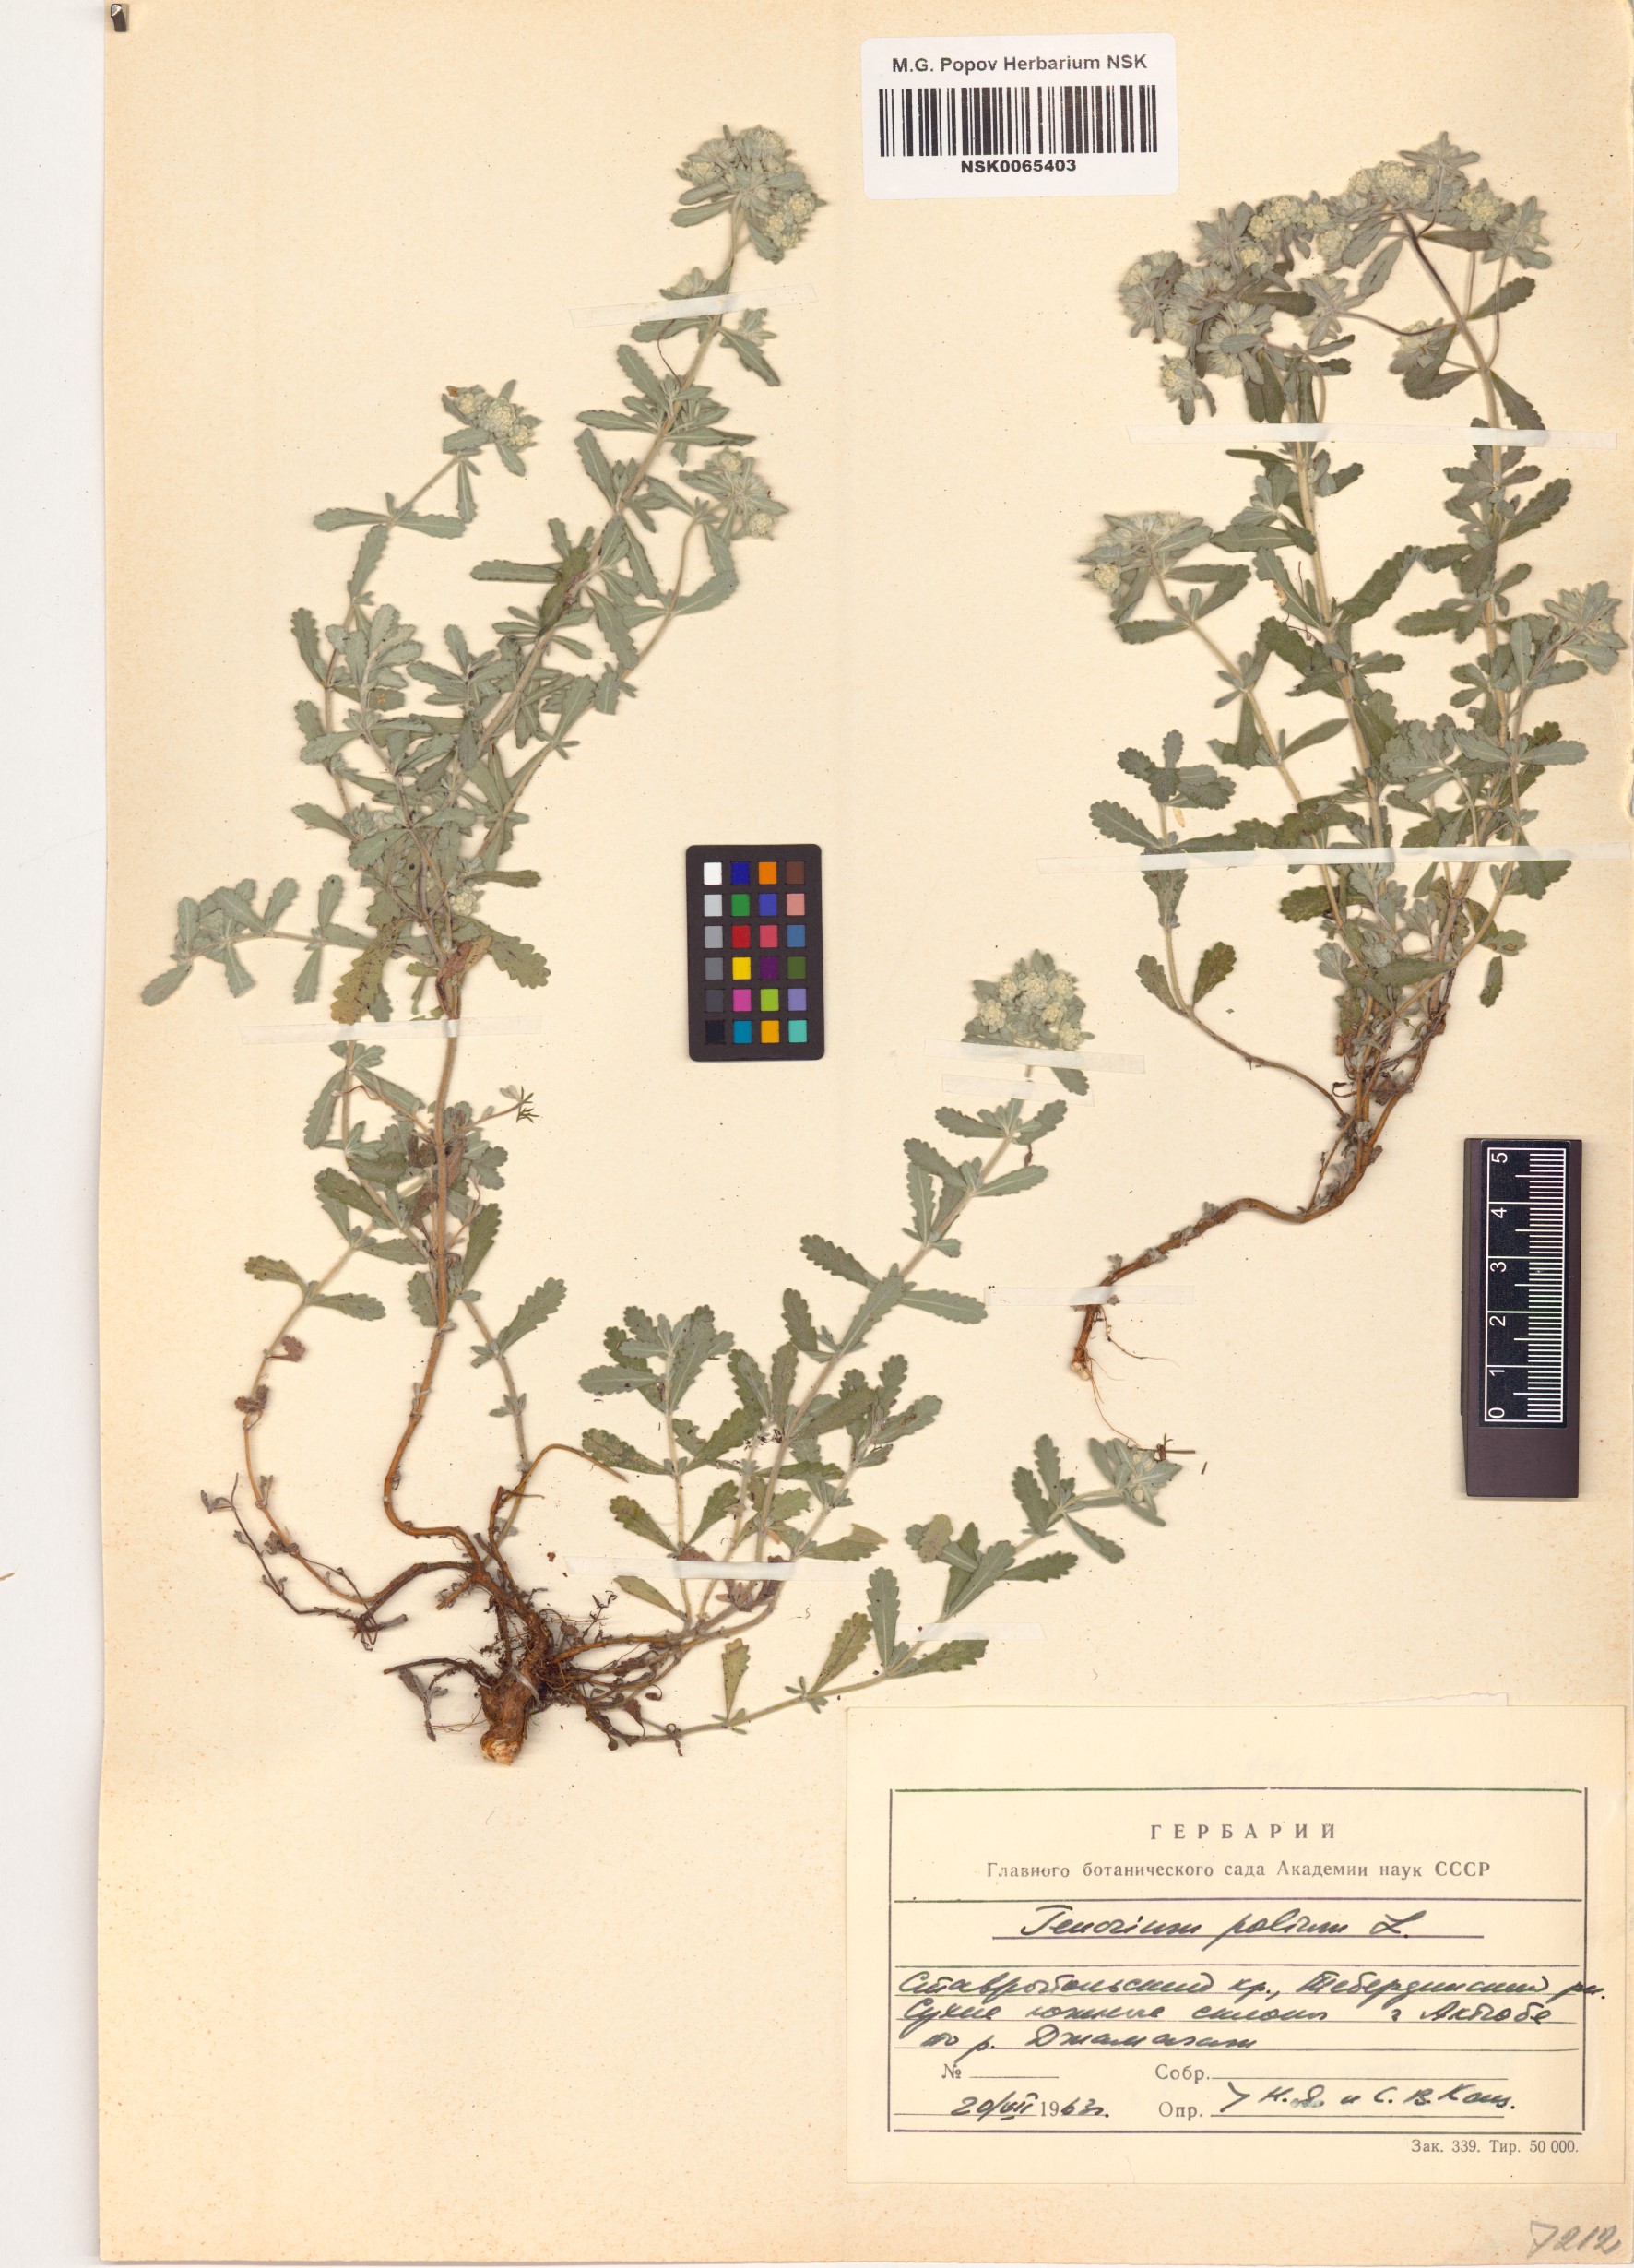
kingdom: Plantae
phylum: Tracheophyta
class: Magnoliopsida
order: Lamiales
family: Lamiaceae
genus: Teucrium
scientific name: Teucrium polium
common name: Poley
